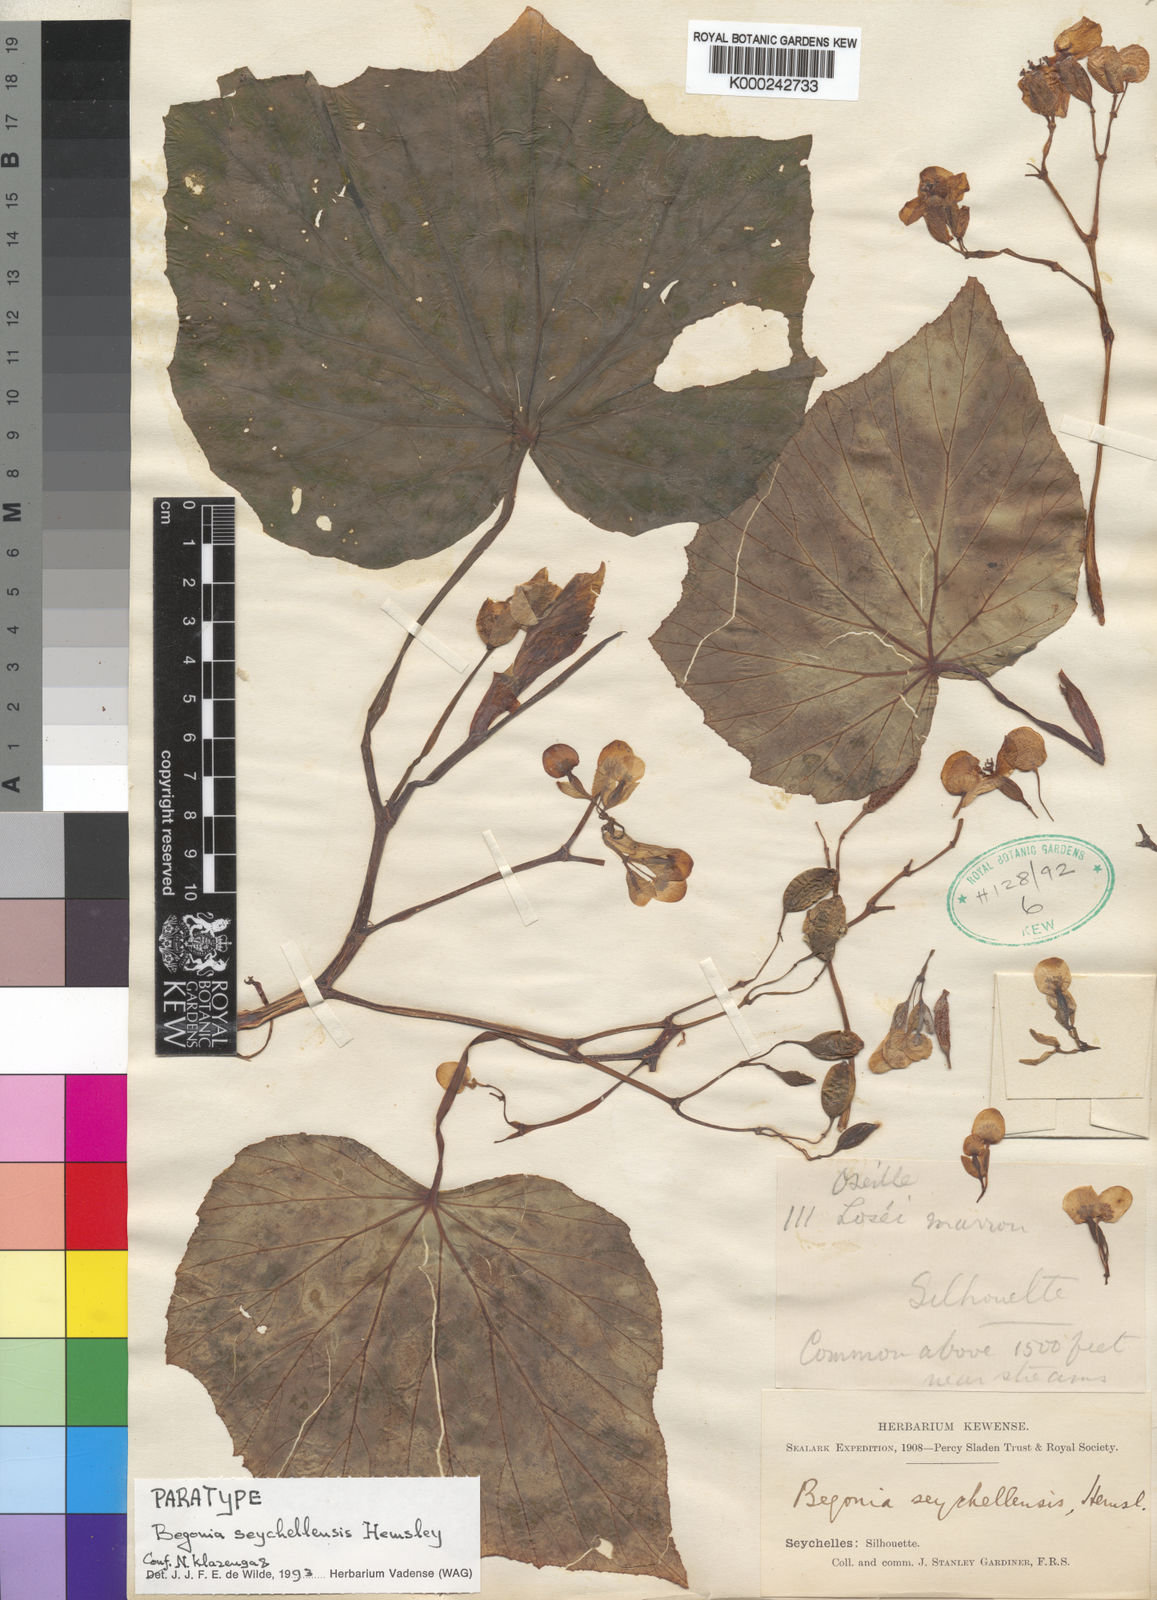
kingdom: Plantae
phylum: Tracheophyta
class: Magnoliopsida
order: Cucurbitales
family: Begoniaceae
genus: Begonia
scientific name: Begonia comorensis
